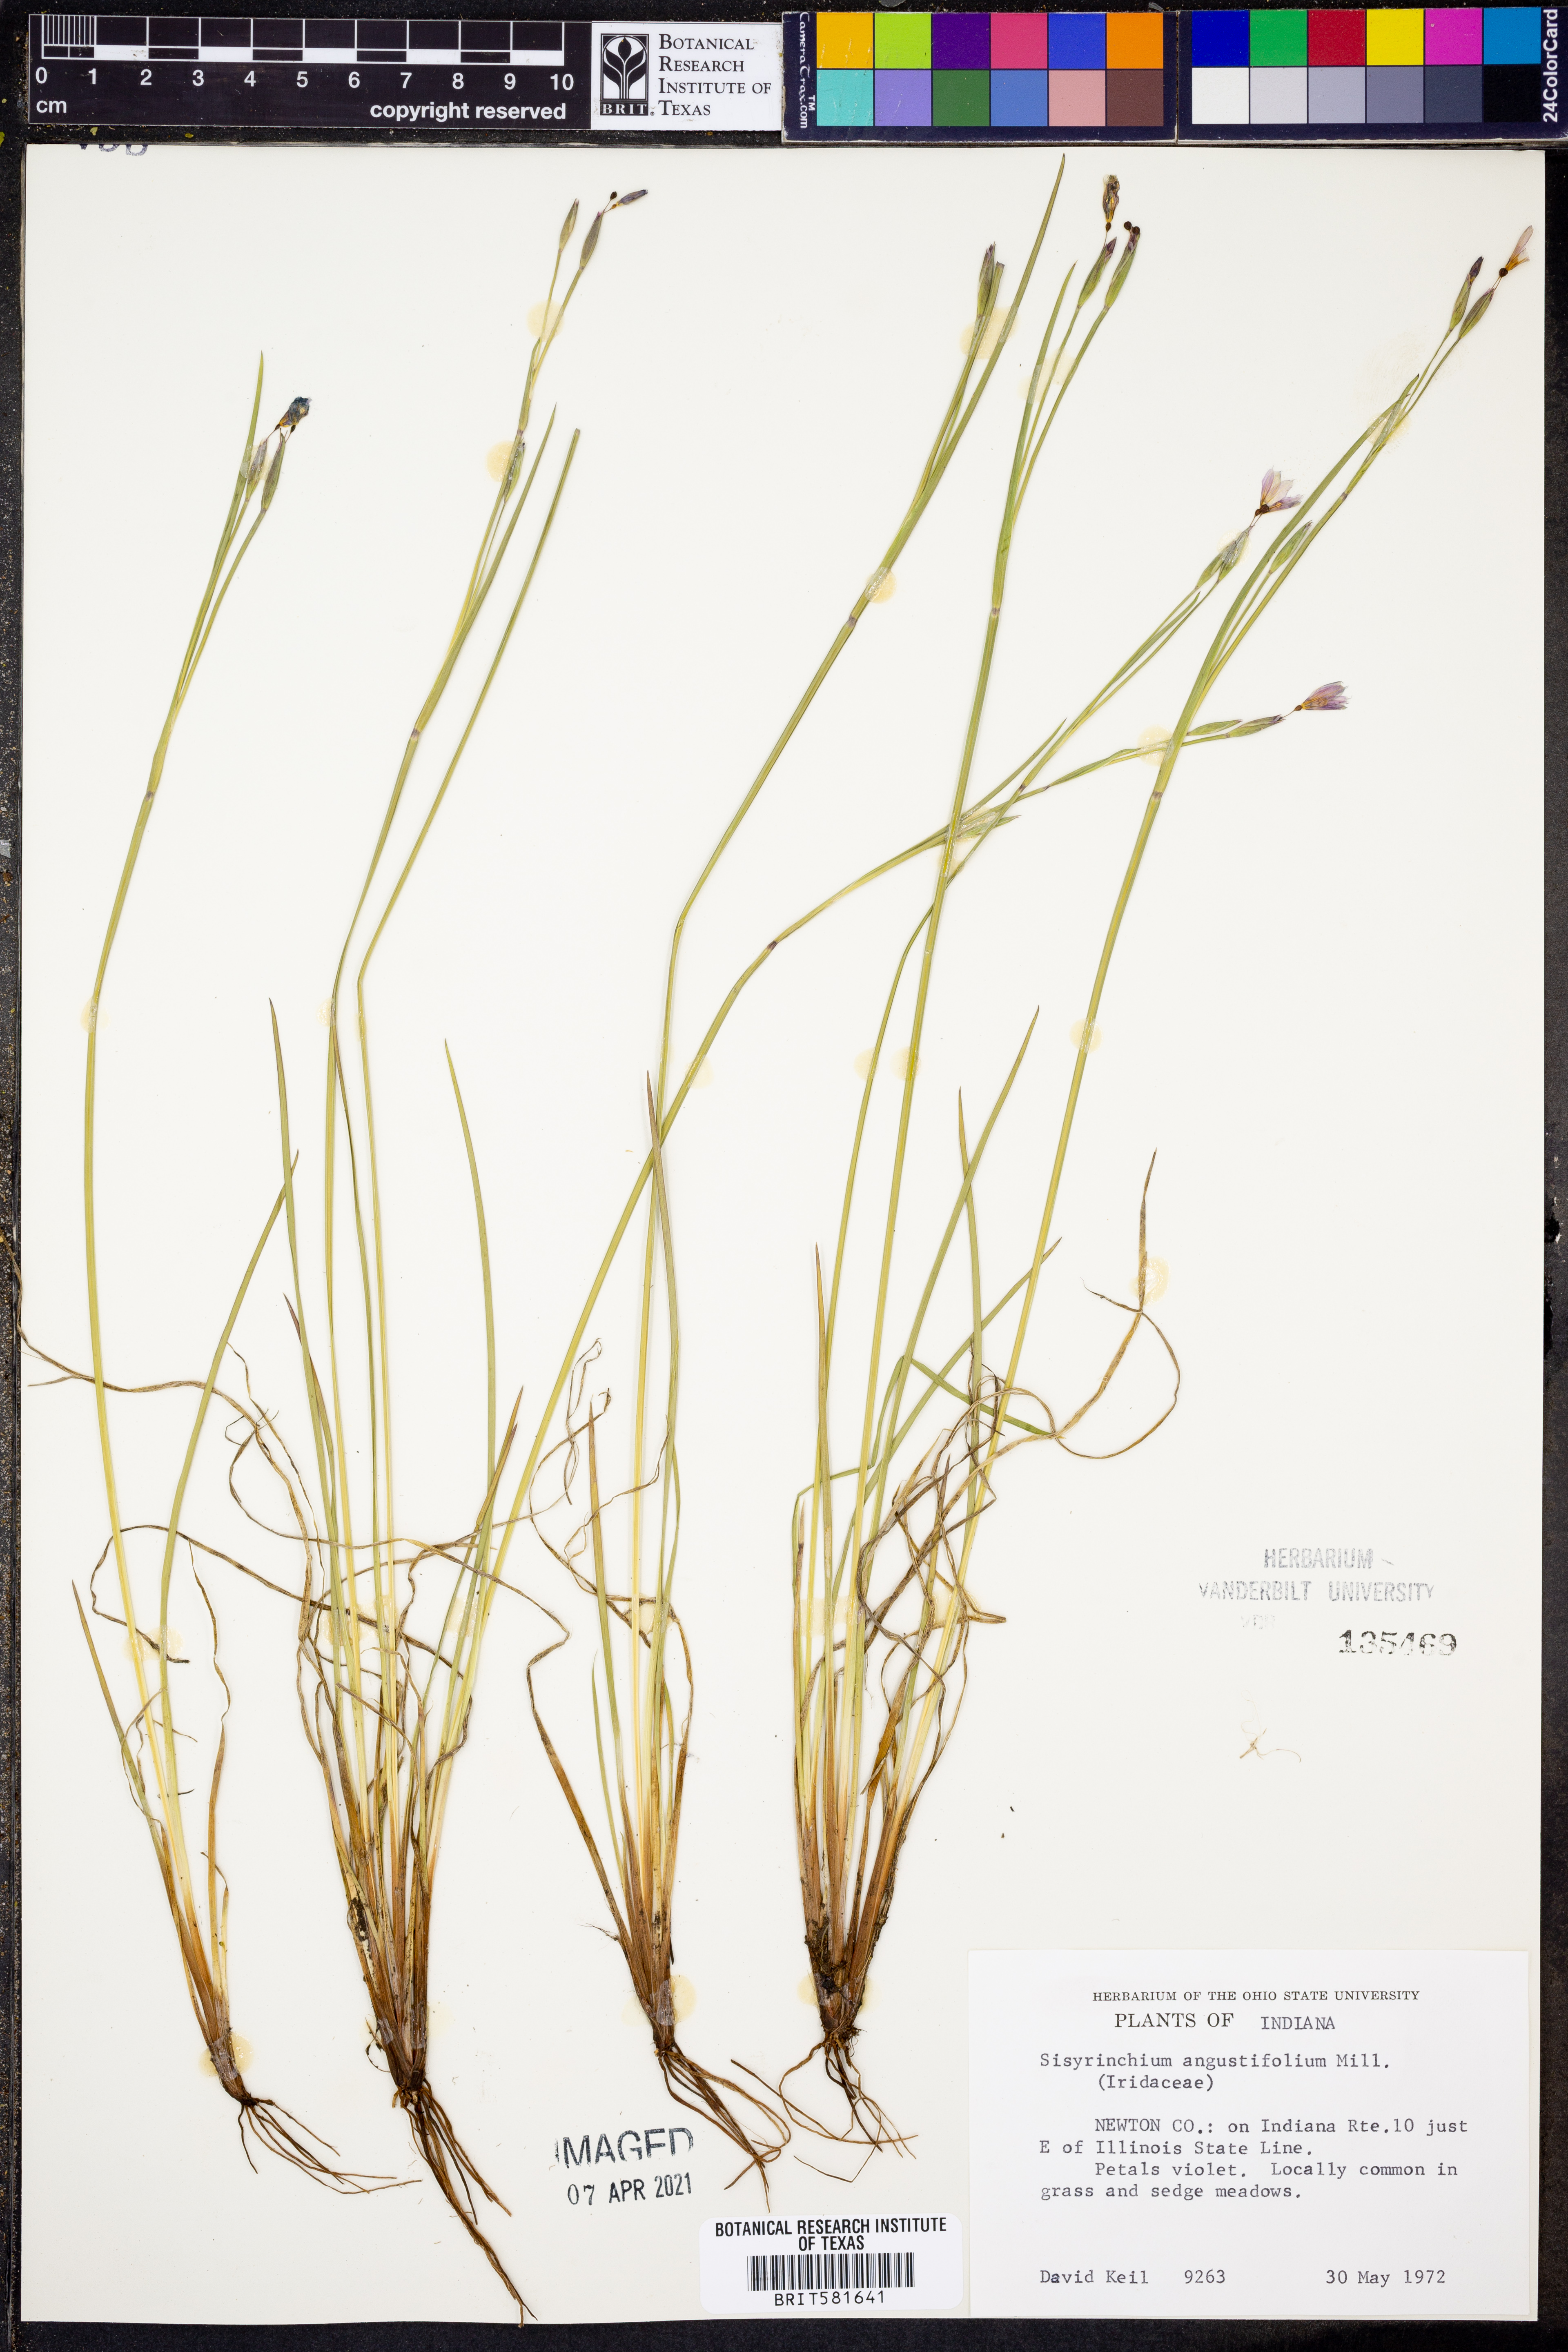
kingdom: Plantae
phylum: Tracheophyta
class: Liliopsida
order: Asparagales
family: Iridaceae
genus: Sisyrinchium
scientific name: Sisyrinchium angustifolium
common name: Narrow-leaf blue-eyed-grass
